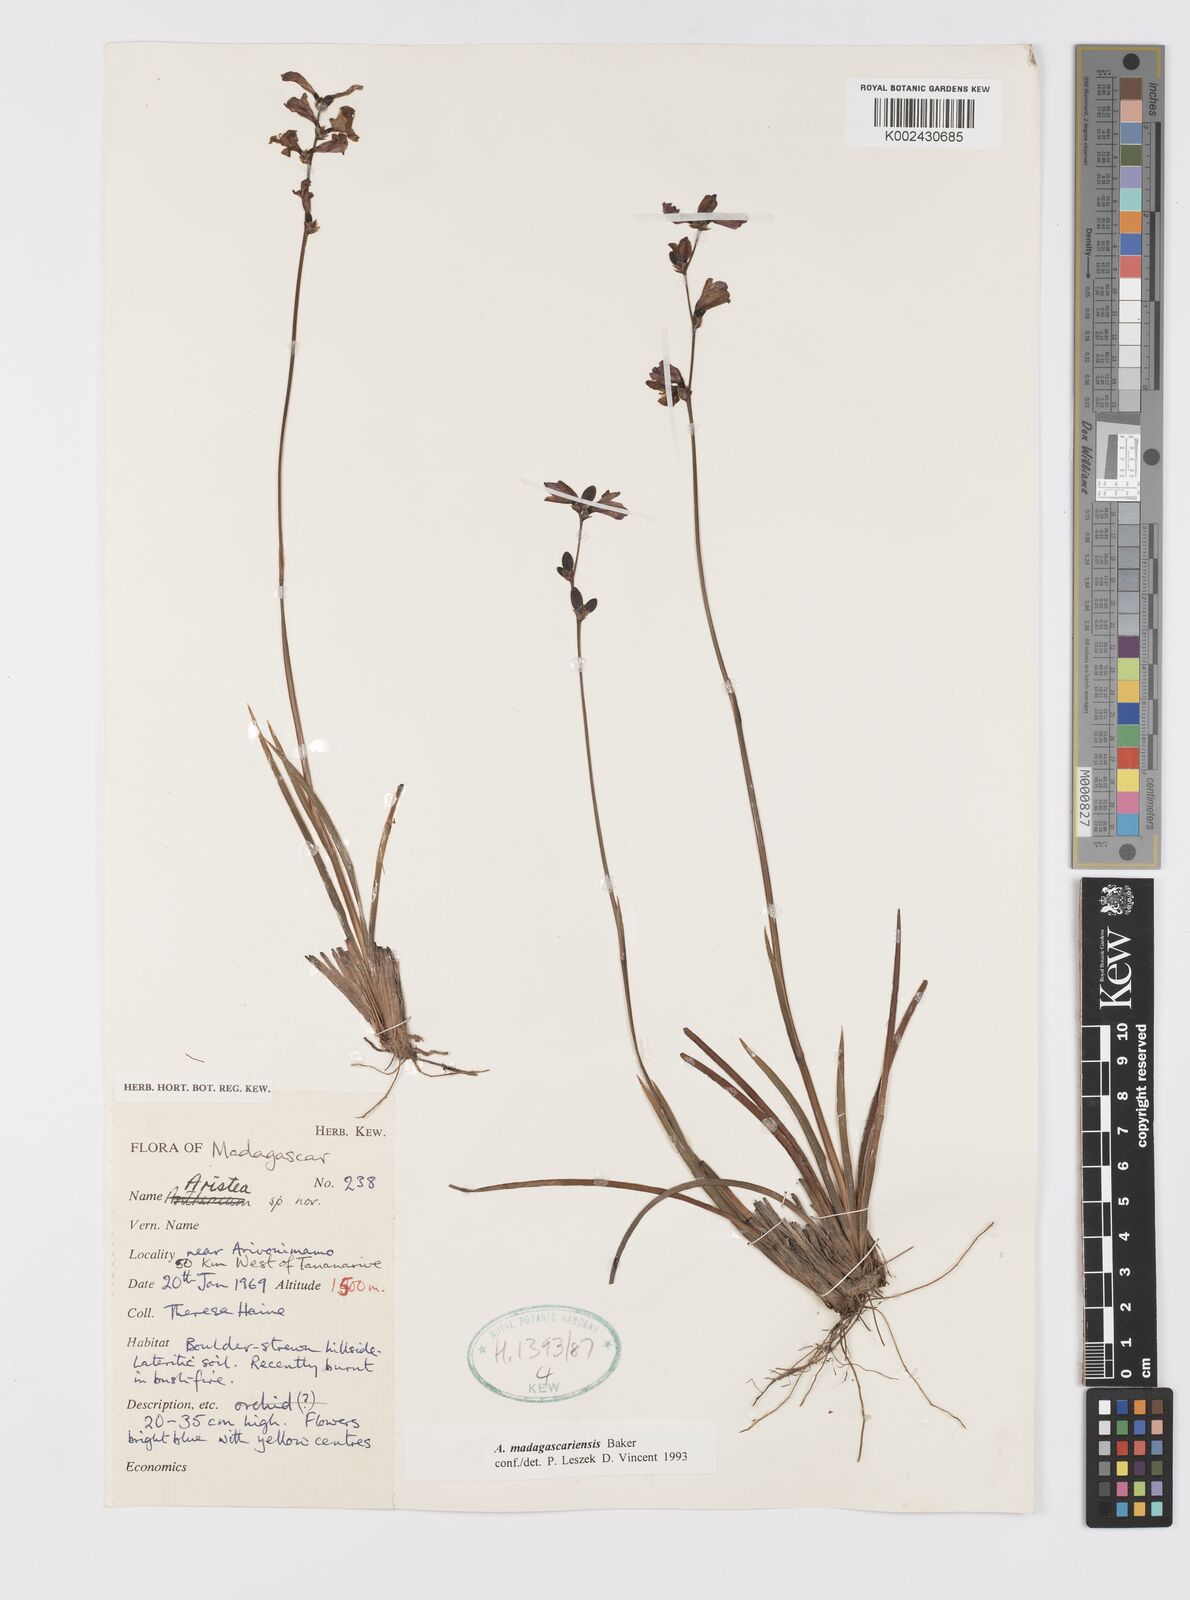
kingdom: Plantae
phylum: Tracheophyta
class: Liliopsida
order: Asparagales
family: Iridaceae
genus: Aristea
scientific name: Aristea madagascariensis
